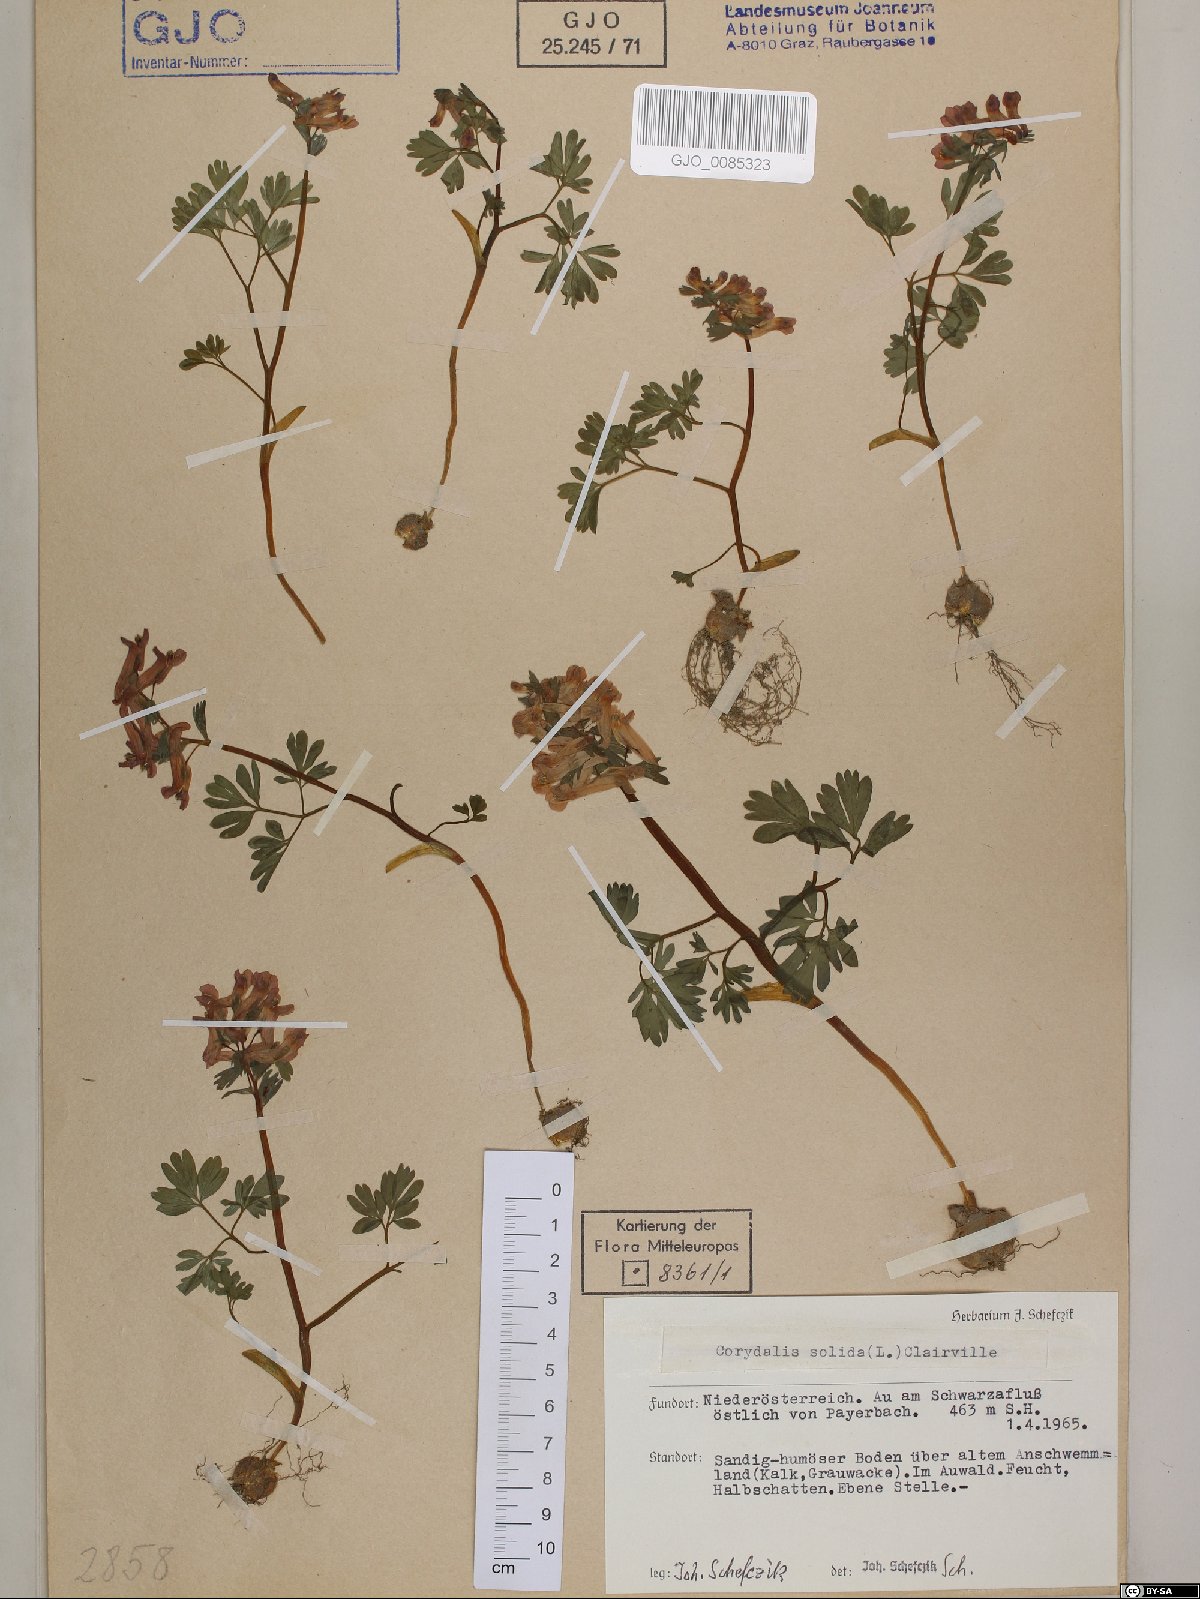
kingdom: Plantae
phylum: Tracheophyta
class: Magnoliopsida
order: Ranunculales
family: Papaveraceae
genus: Corydalis
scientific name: Corydalis solida
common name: Bird-in-a-bush
